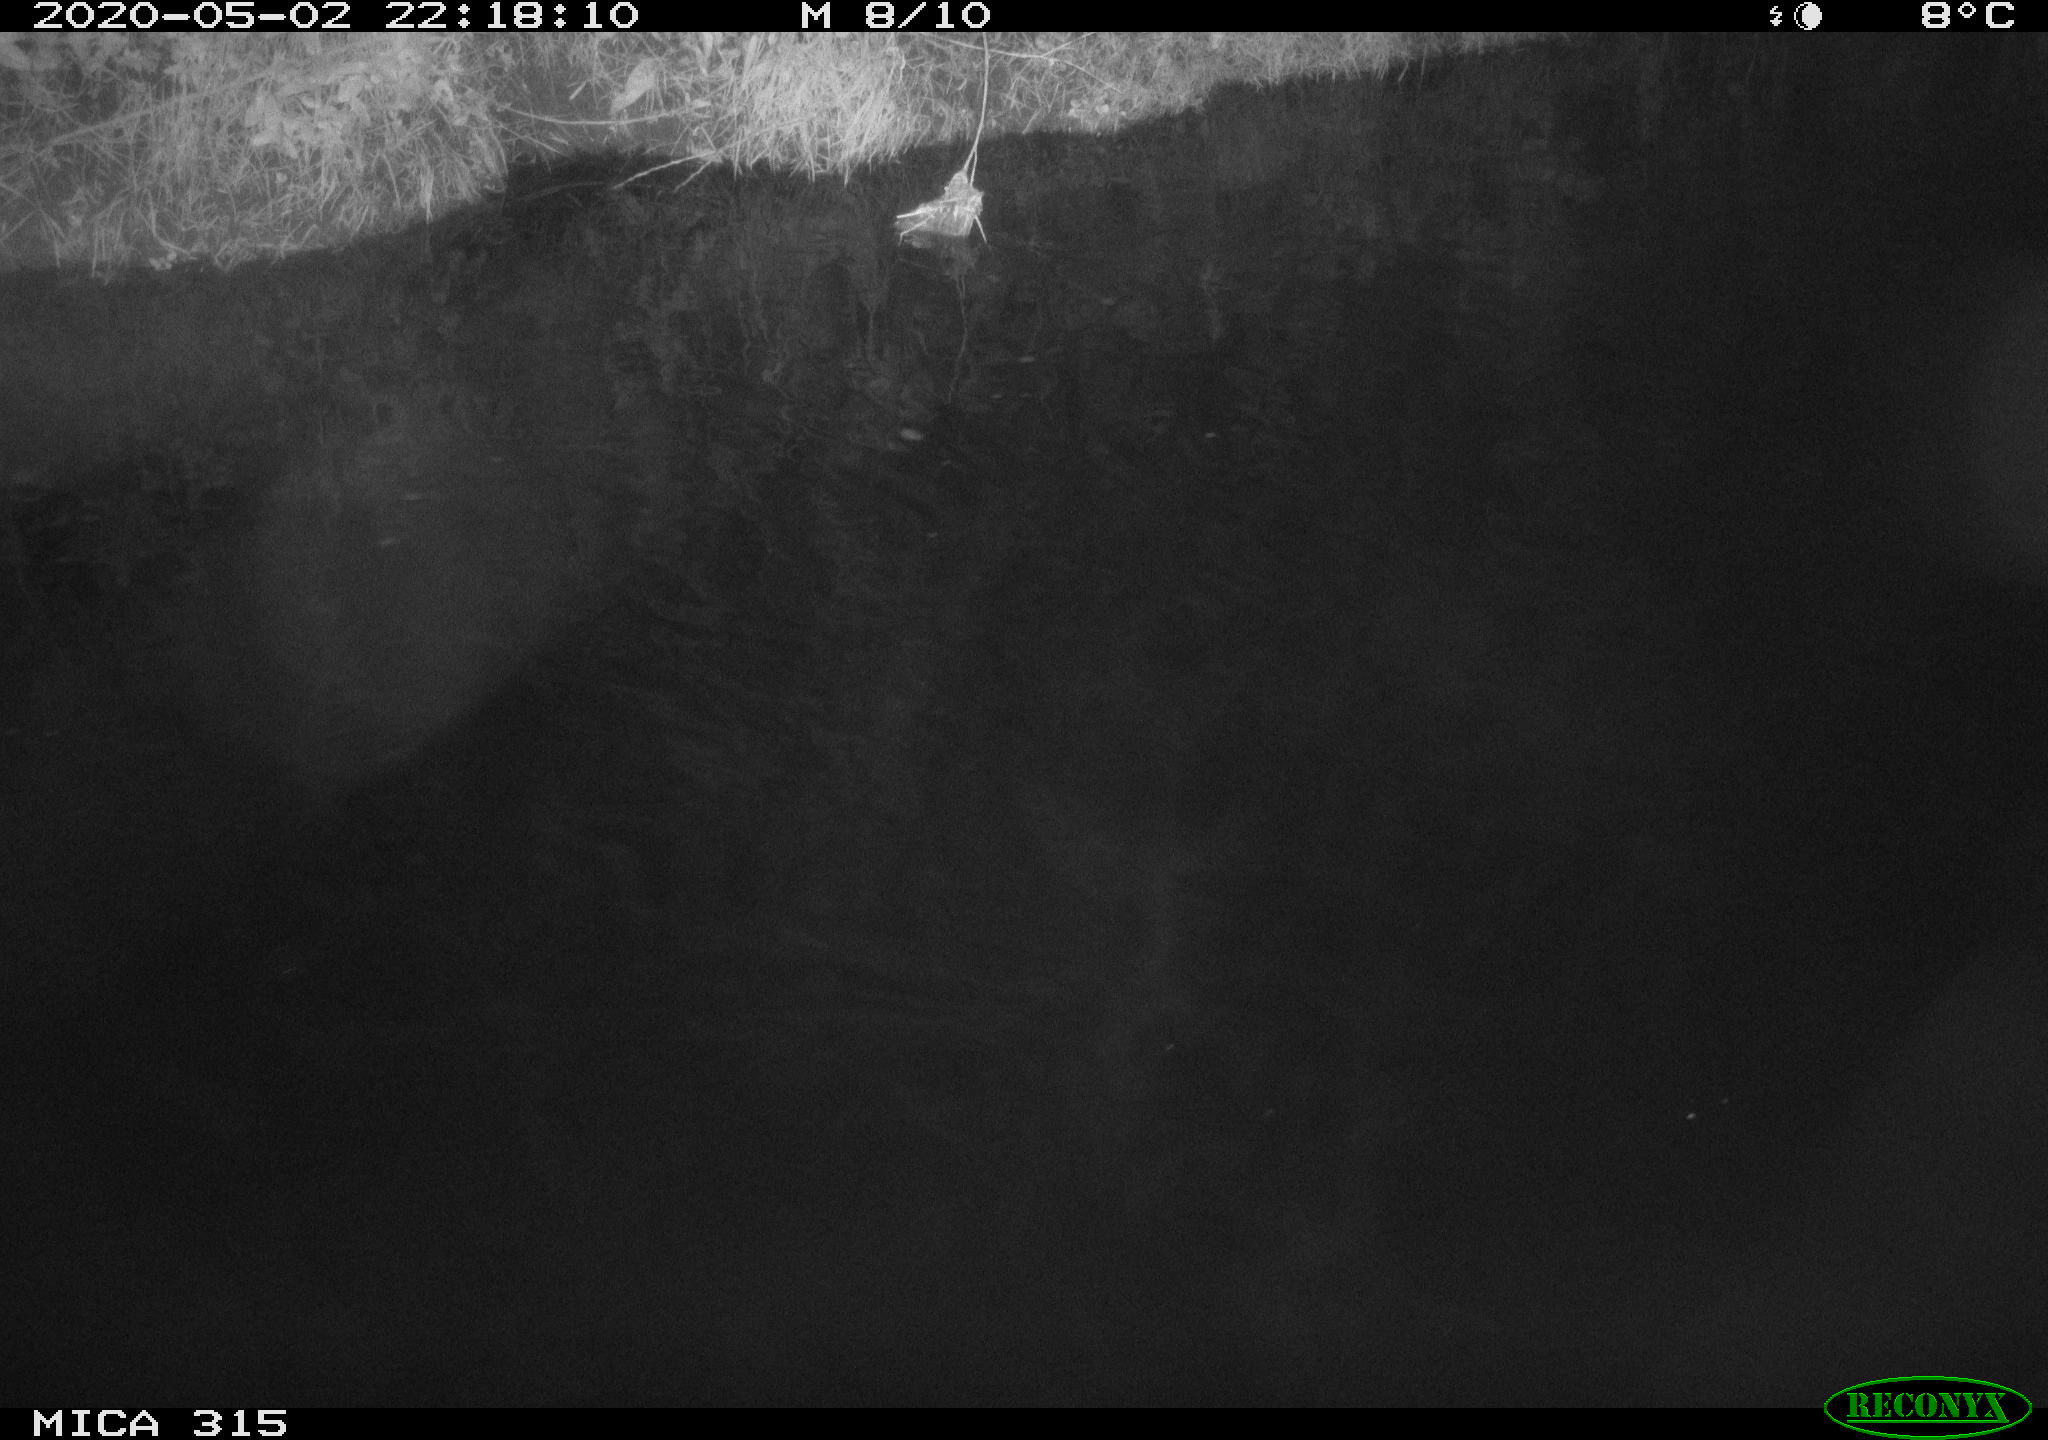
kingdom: Animalia
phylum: Chordata
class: Aves
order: Anseriformes
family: Anatidae
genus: Anas
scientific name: Anas platyrhynchos
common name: Mallard
